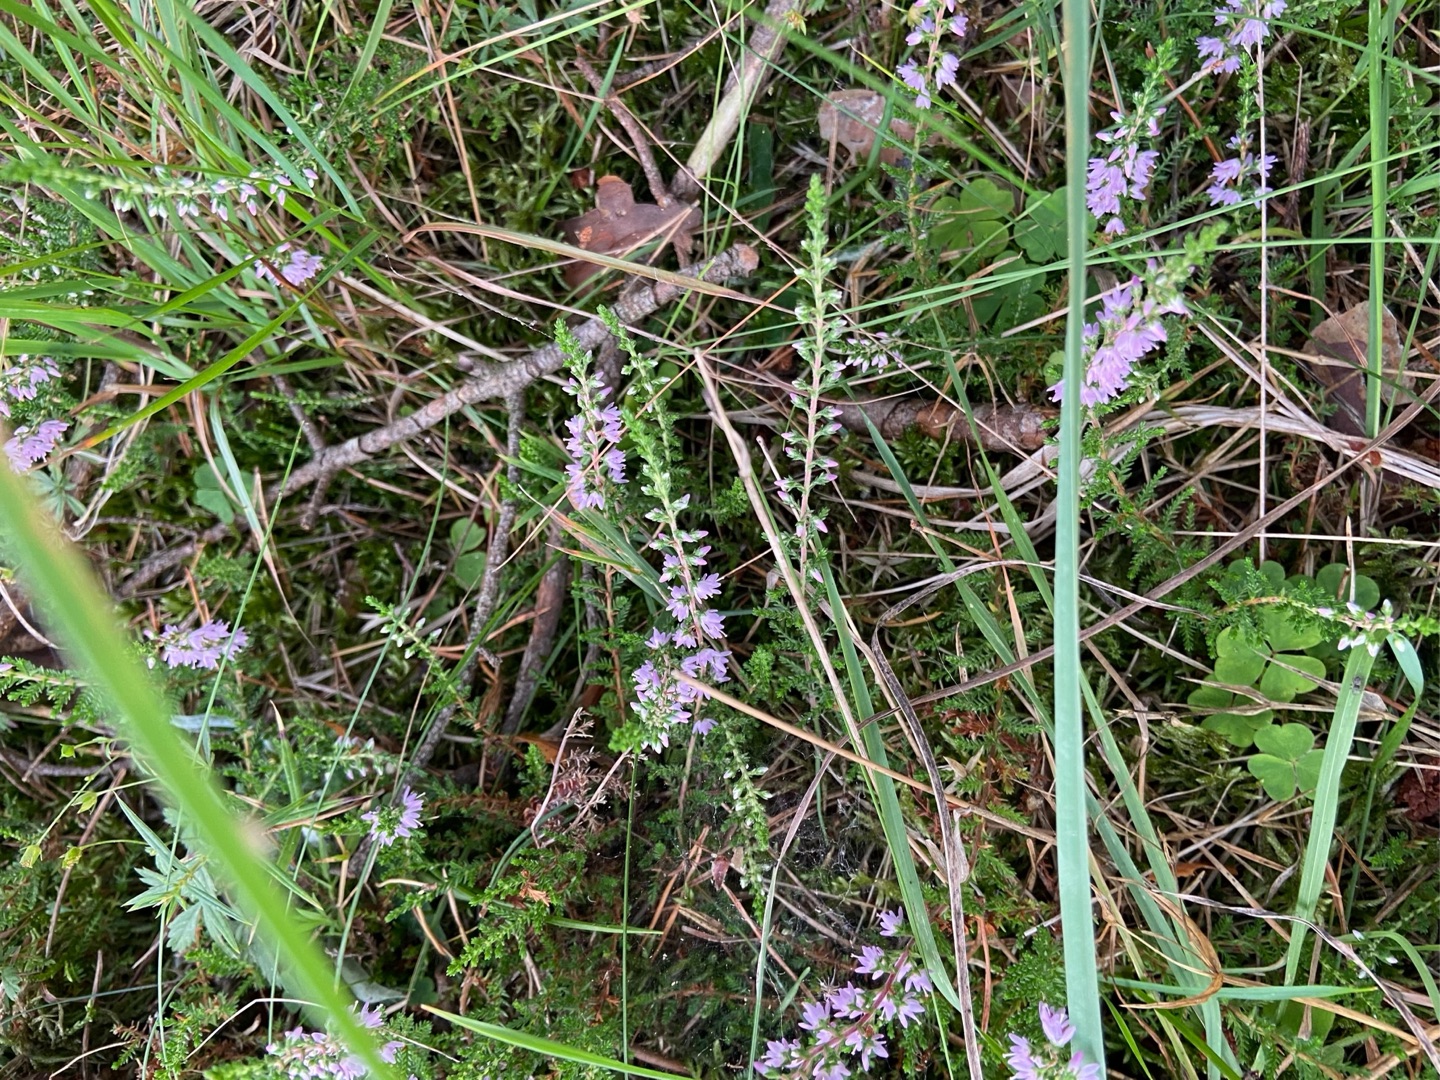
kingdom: Plantae
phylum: Tracheophyta
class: Magnoliopsida
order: Ericales
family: Ericaceae
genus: Calluna
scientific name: Calluna vulgaris
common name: Hedelyng
